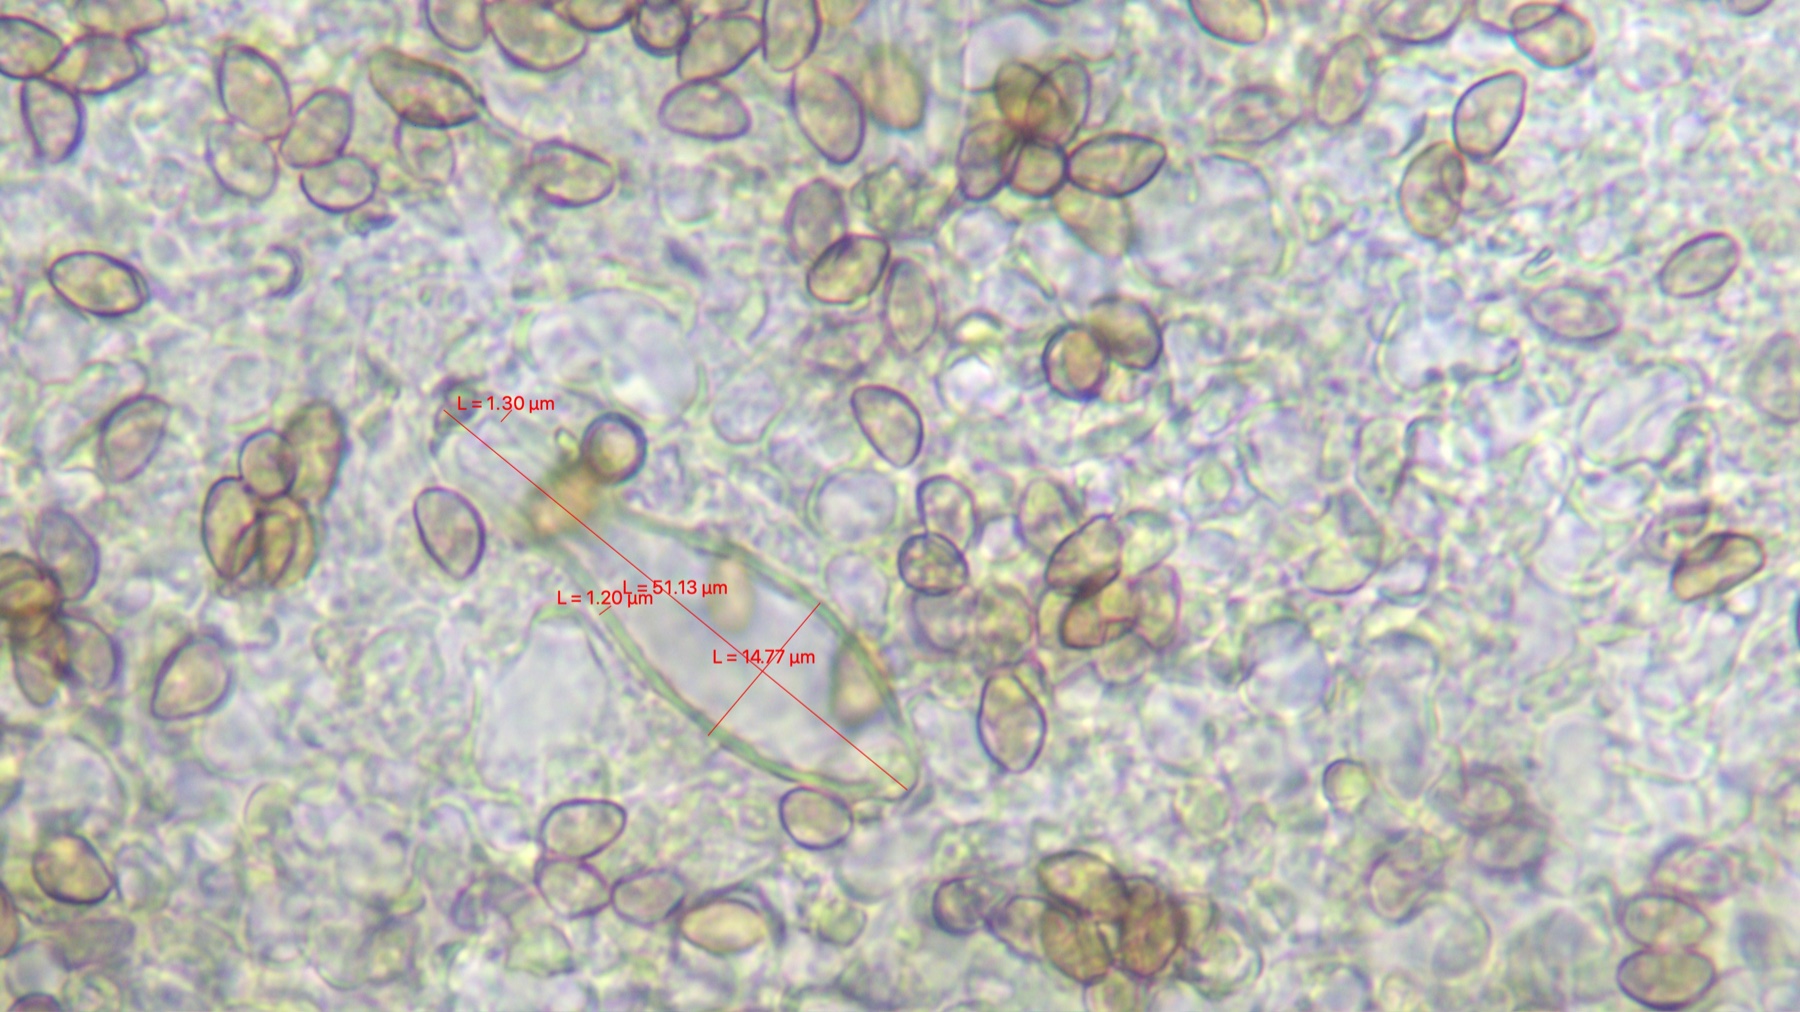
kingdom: Fungi
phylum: Basidiomycota
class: Agaricomycetes
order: Agaricales
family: Inocybaceae
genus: Inocybe
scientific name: Inocybe jucunda
